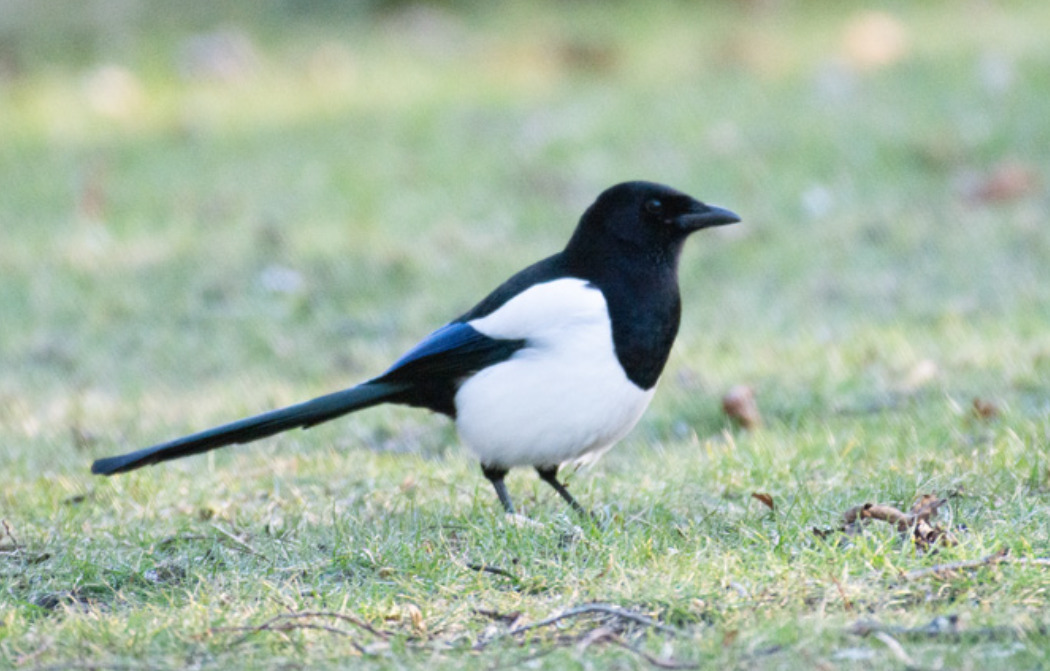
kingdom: Animalia
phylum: Chordata
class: Aves
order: Passeriformes
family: Corvidae
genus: Pica
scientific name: Pica pica
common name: Husskade
